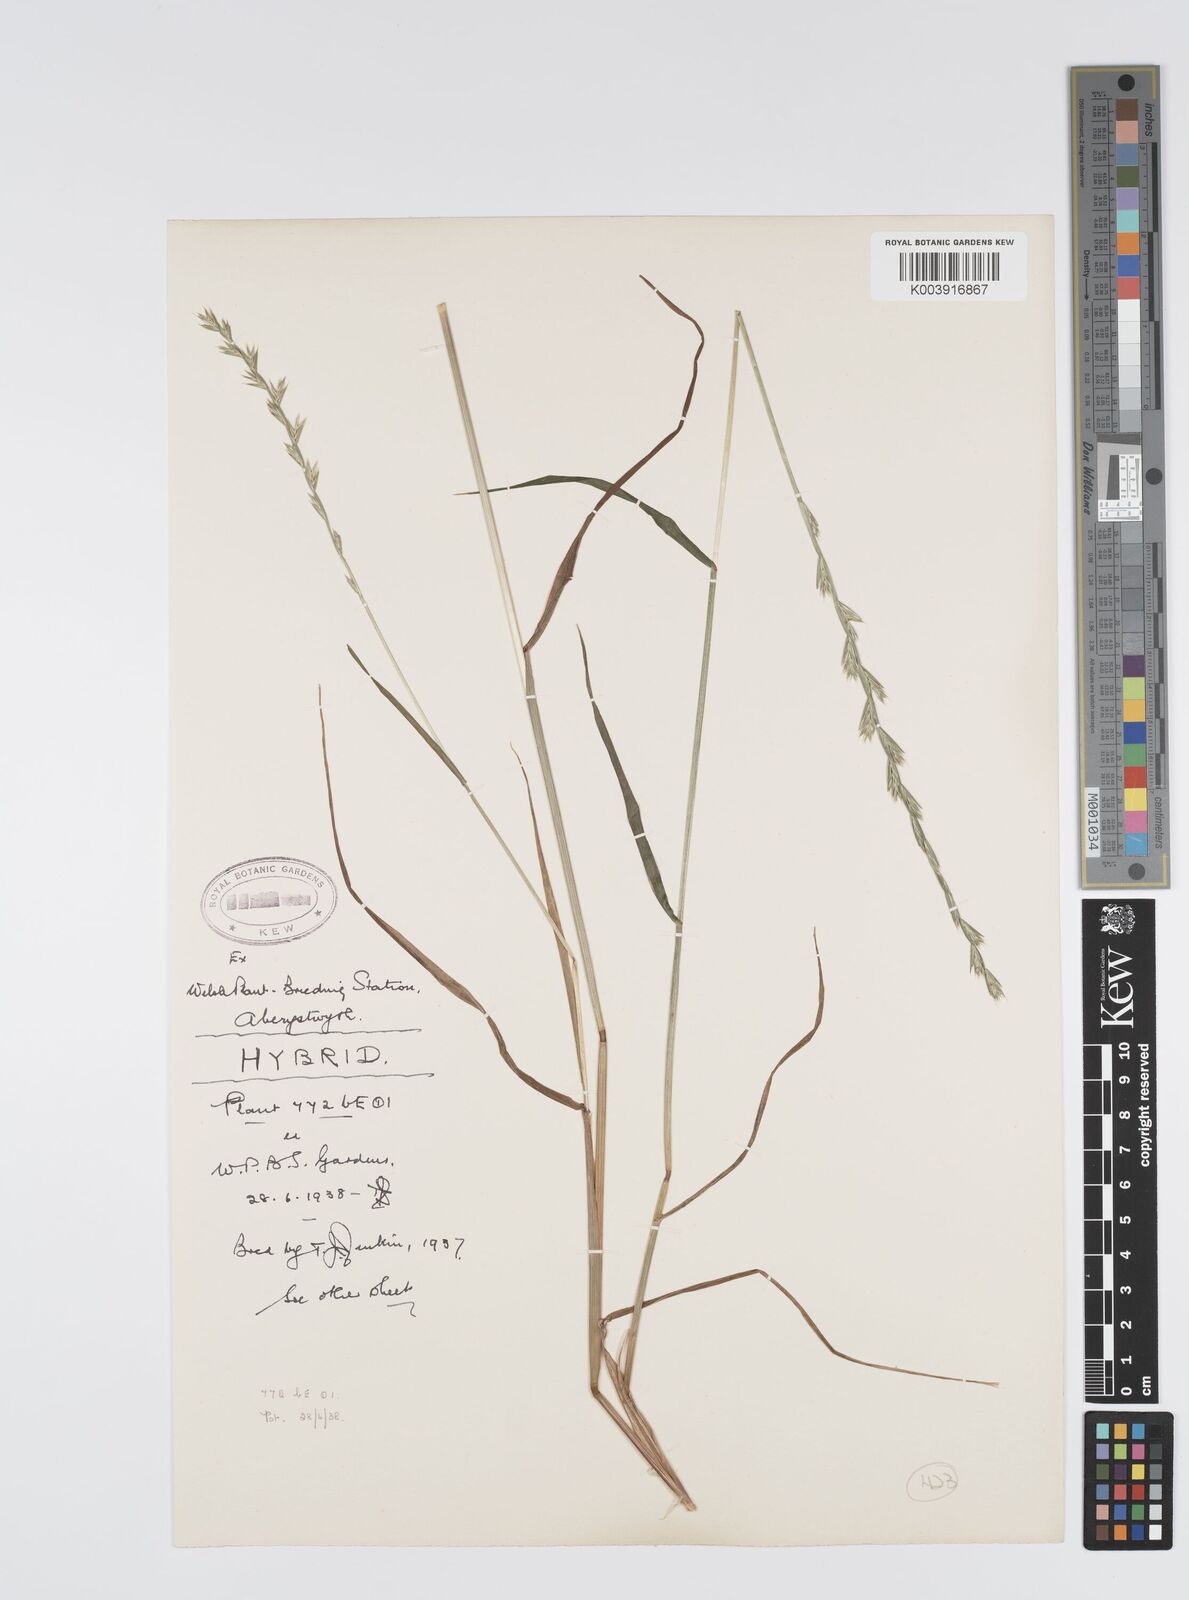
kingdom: Plantae
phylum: Tracheophyta
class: Liliopsida
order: Poales
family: Poaceae
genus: Lolium
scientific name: Lolium multiflorum
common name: Annual ryegrass
